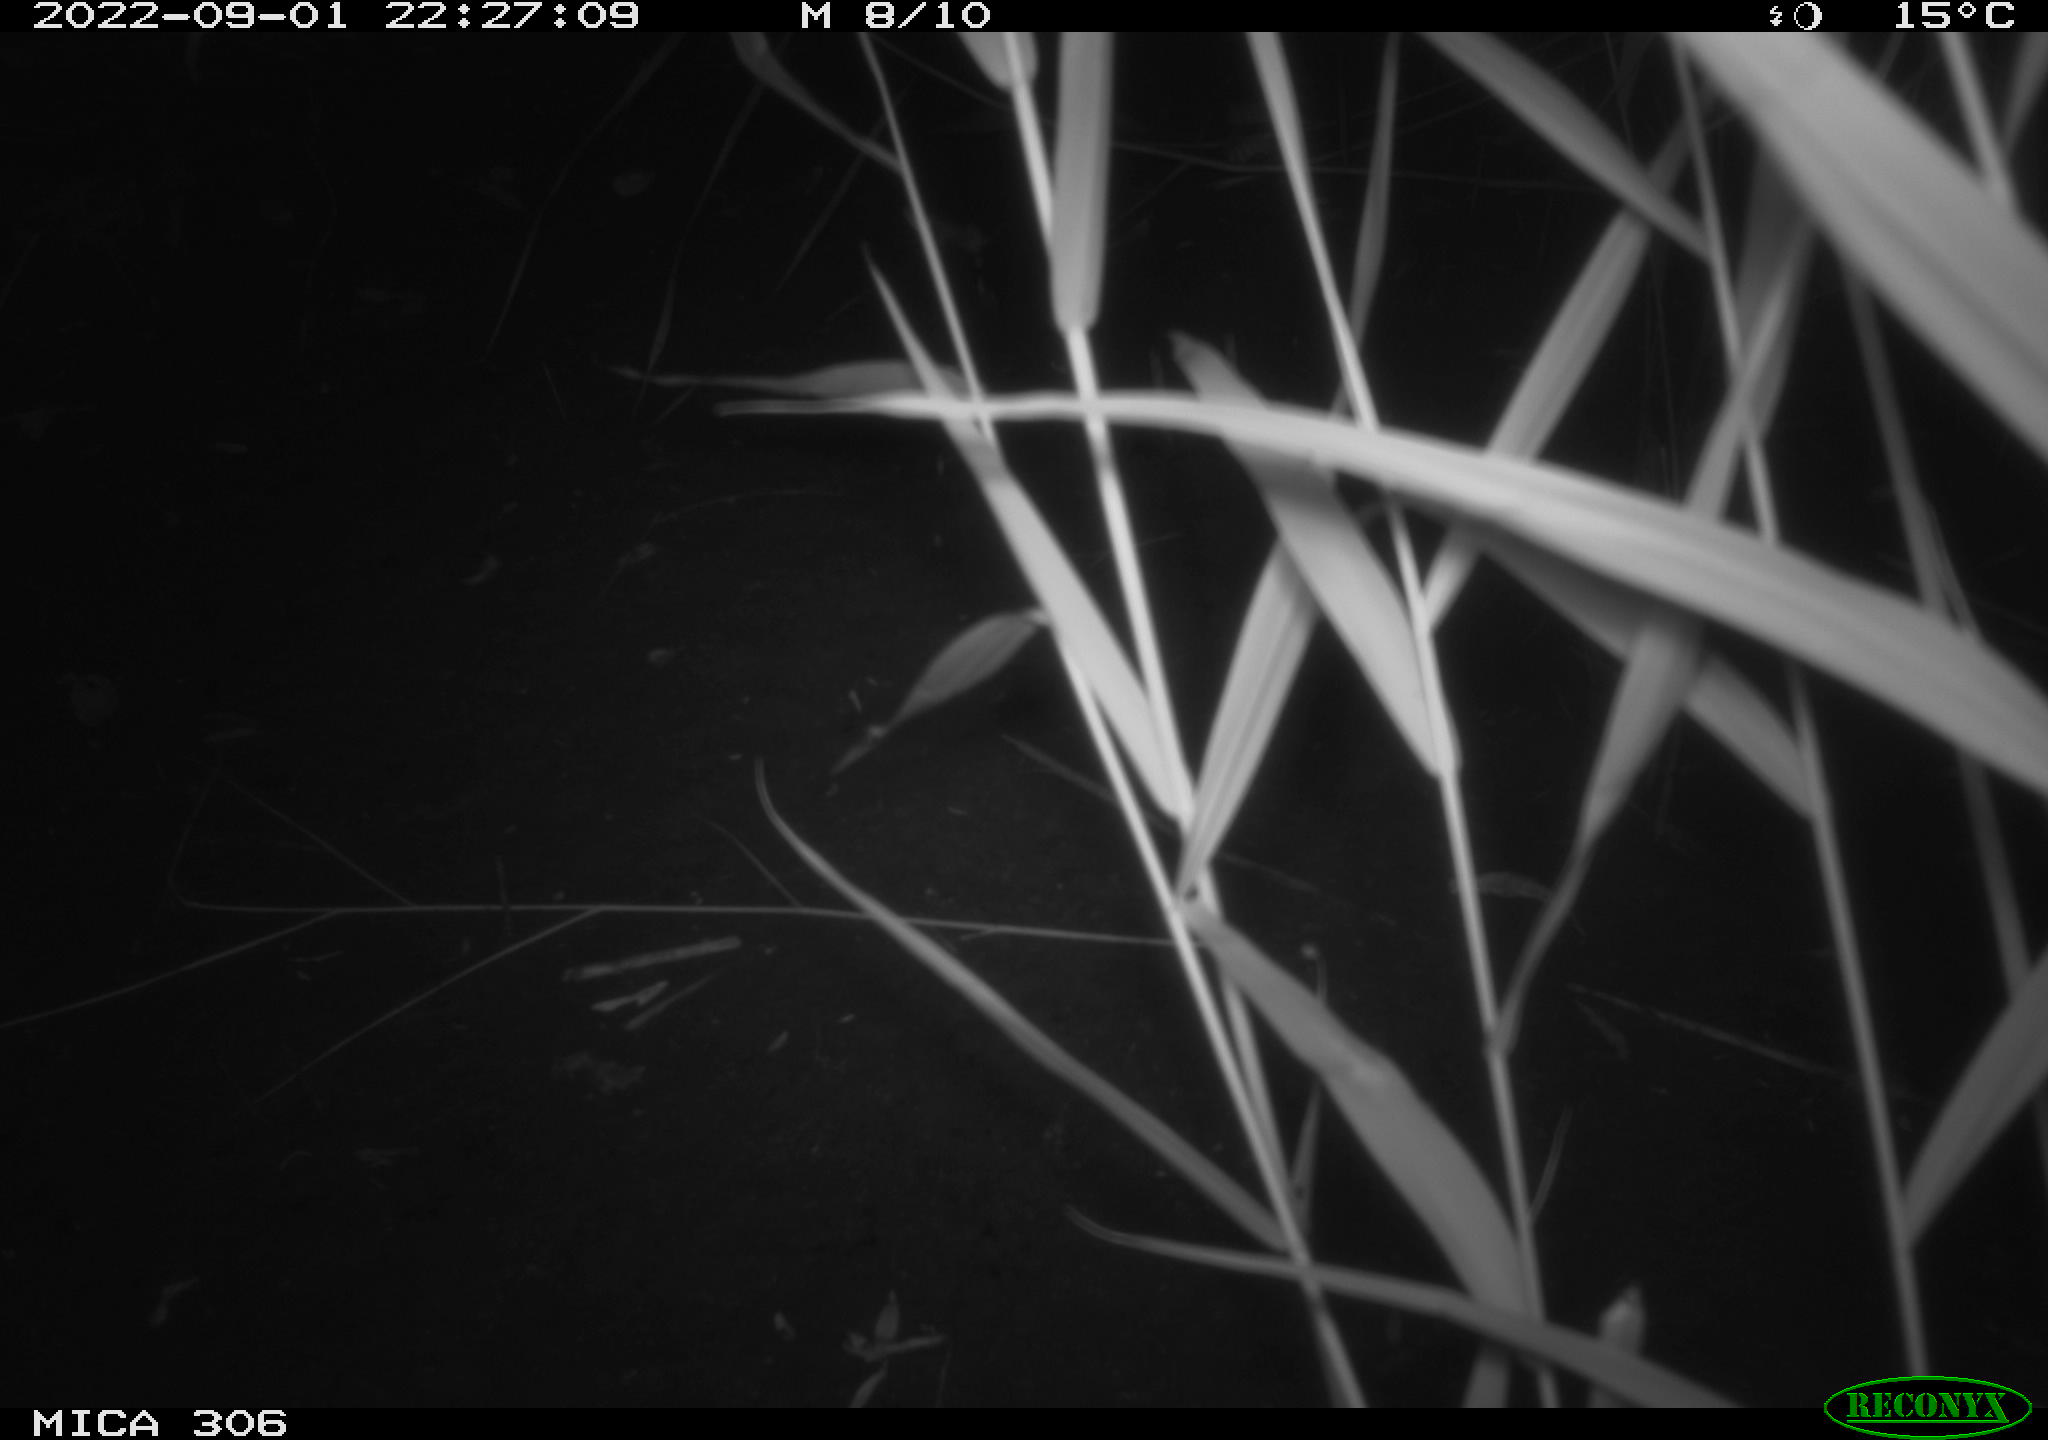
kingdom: Animalia
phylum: Chordata
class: Mammalia
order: Rodentia
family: Muridae
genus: Rattus
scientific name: Rattus norvegicus
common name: Brown rat
